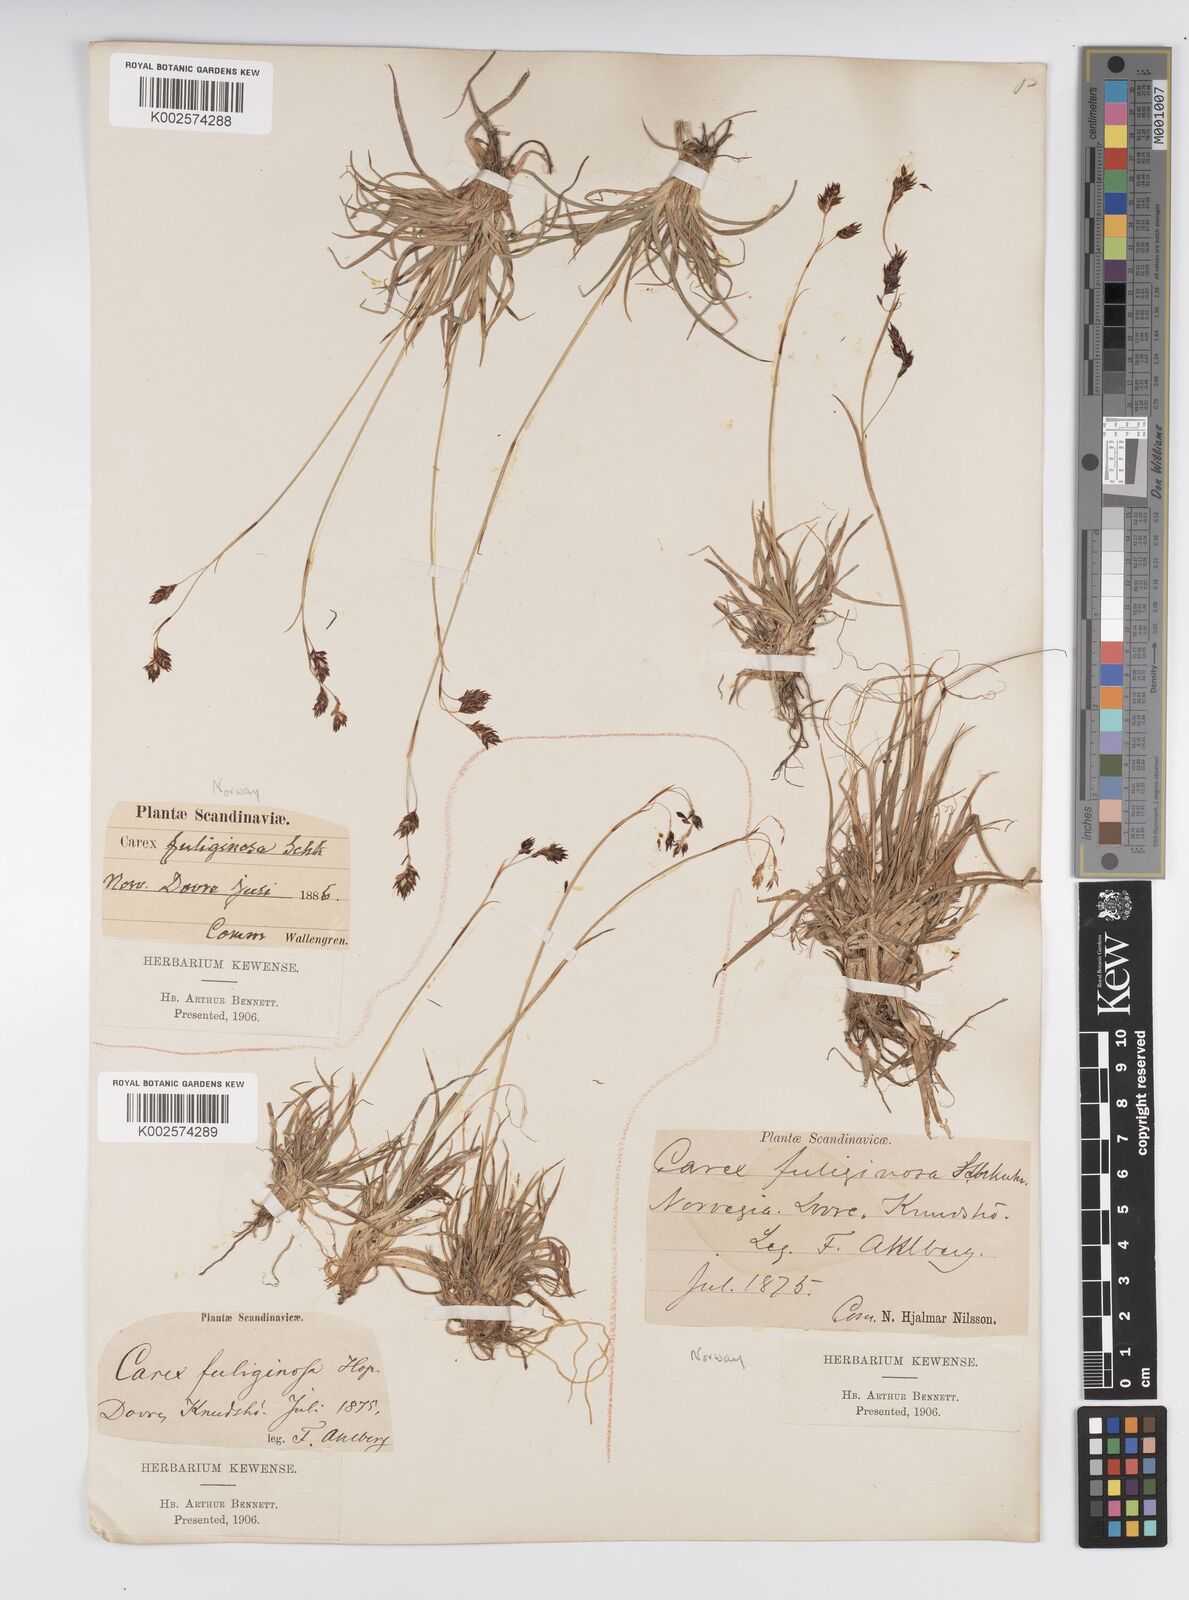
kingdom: Plantae
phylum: Tracheophyta
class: Liliopsida
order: Poales
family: Cyperaceae
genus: Carex
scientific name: Carex fuliginosa
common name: Few-flowered sedge
